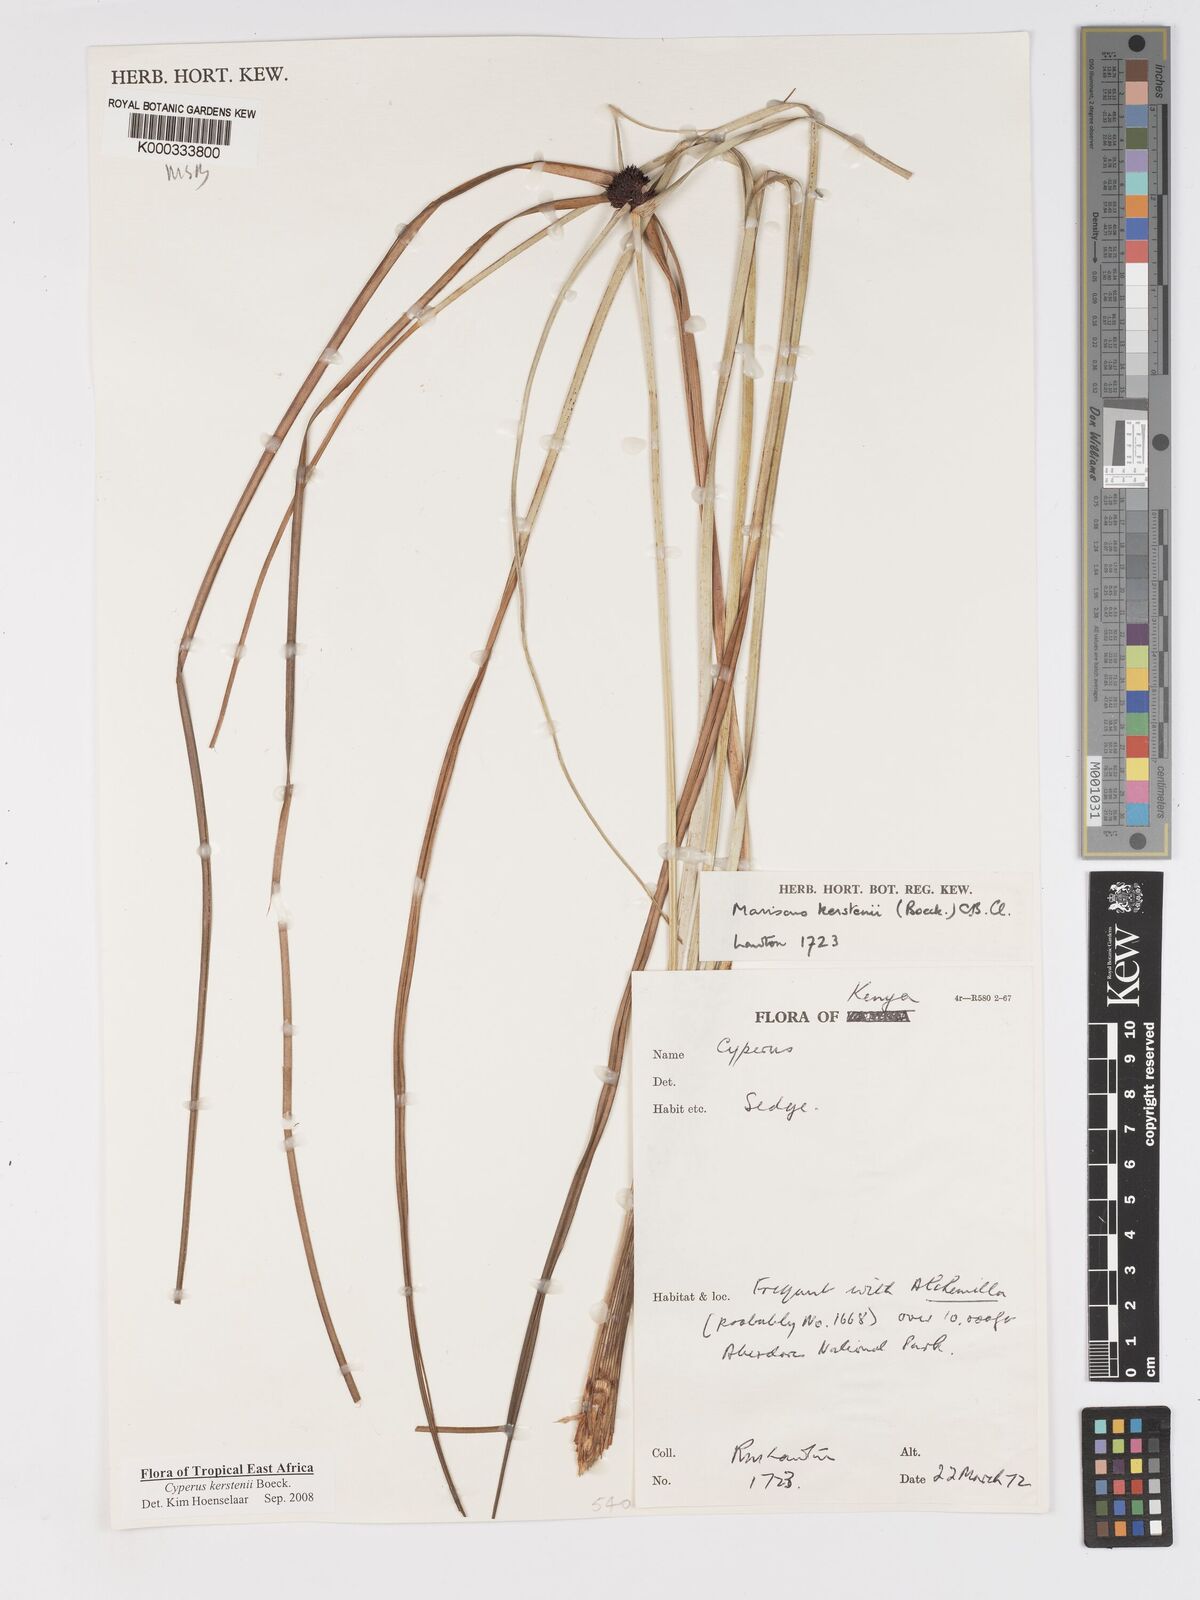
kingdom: Plantae
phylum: Tracheophyta
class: Liliopsida
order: Poales
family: Cyperaceae
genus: Cyperus
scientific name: Cyperus kerstenii
